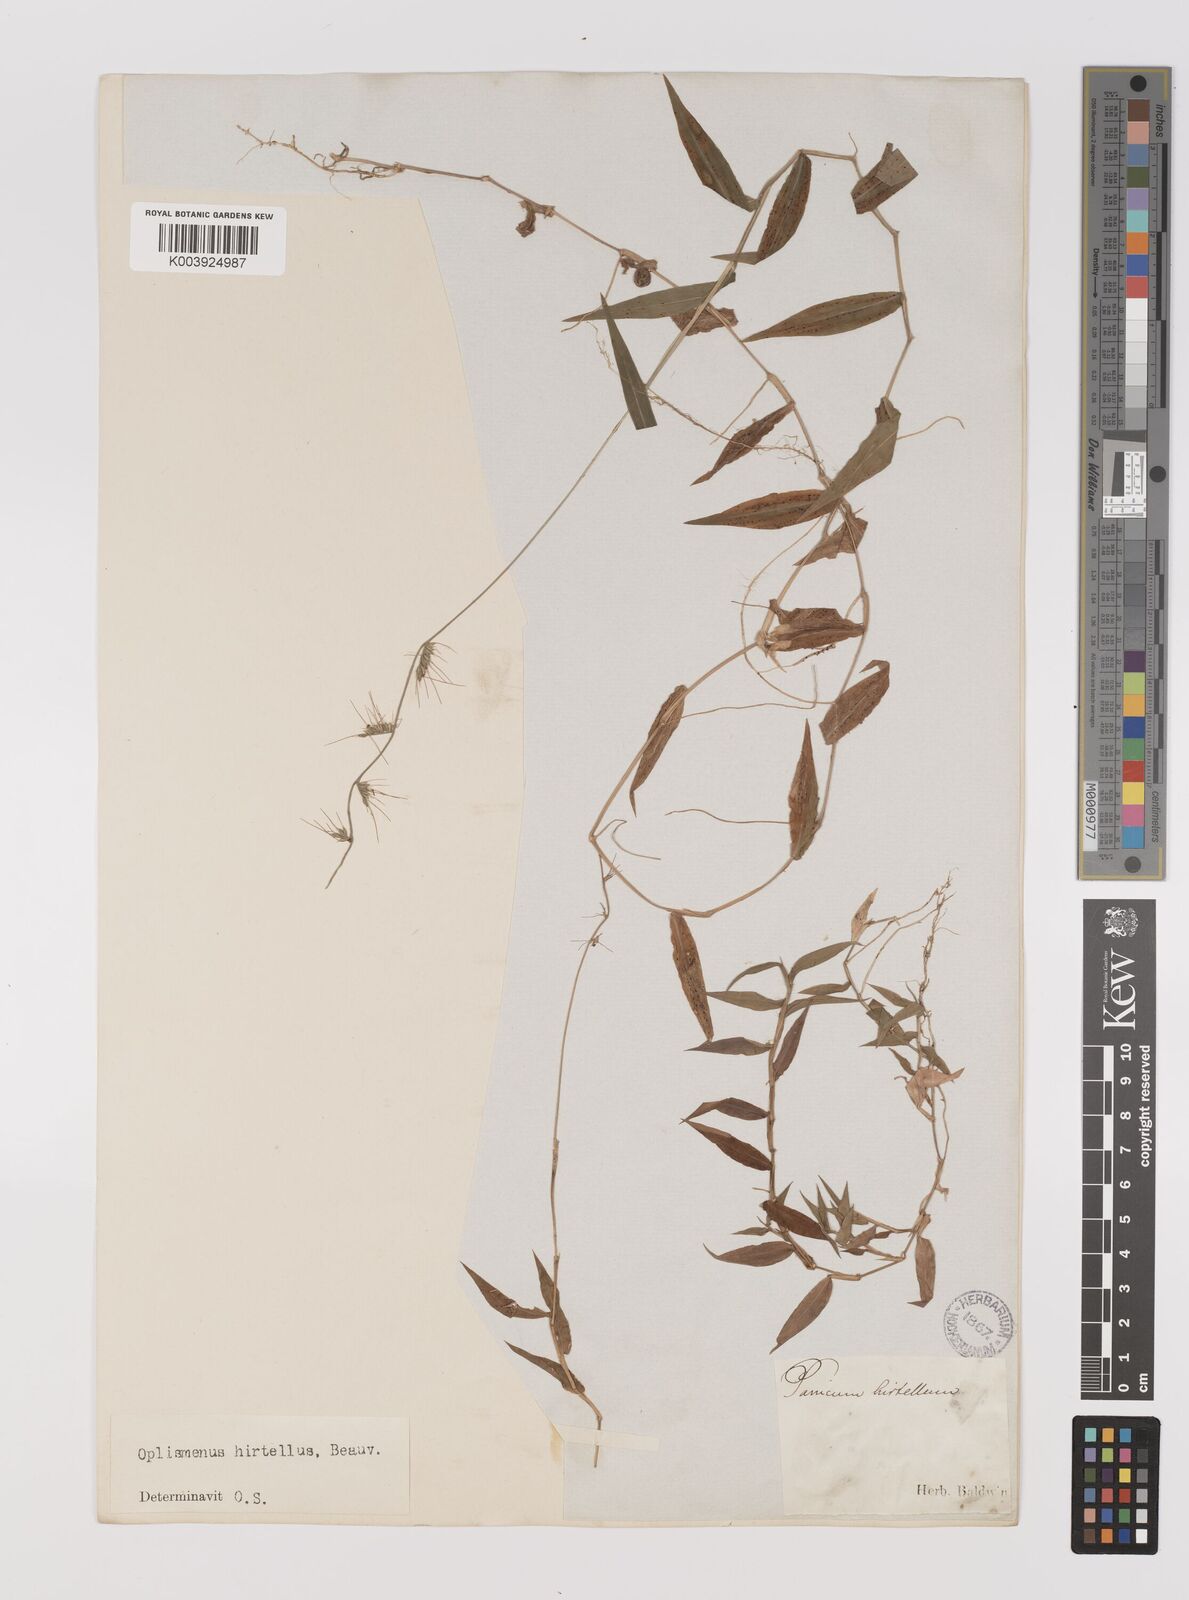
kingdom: Plantae
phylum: Tracheophyta
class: Liliopsida
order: Poales
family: Poaceae
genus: Oplismenus
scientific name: Oplismenus hirtellus
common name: Basketgrass
